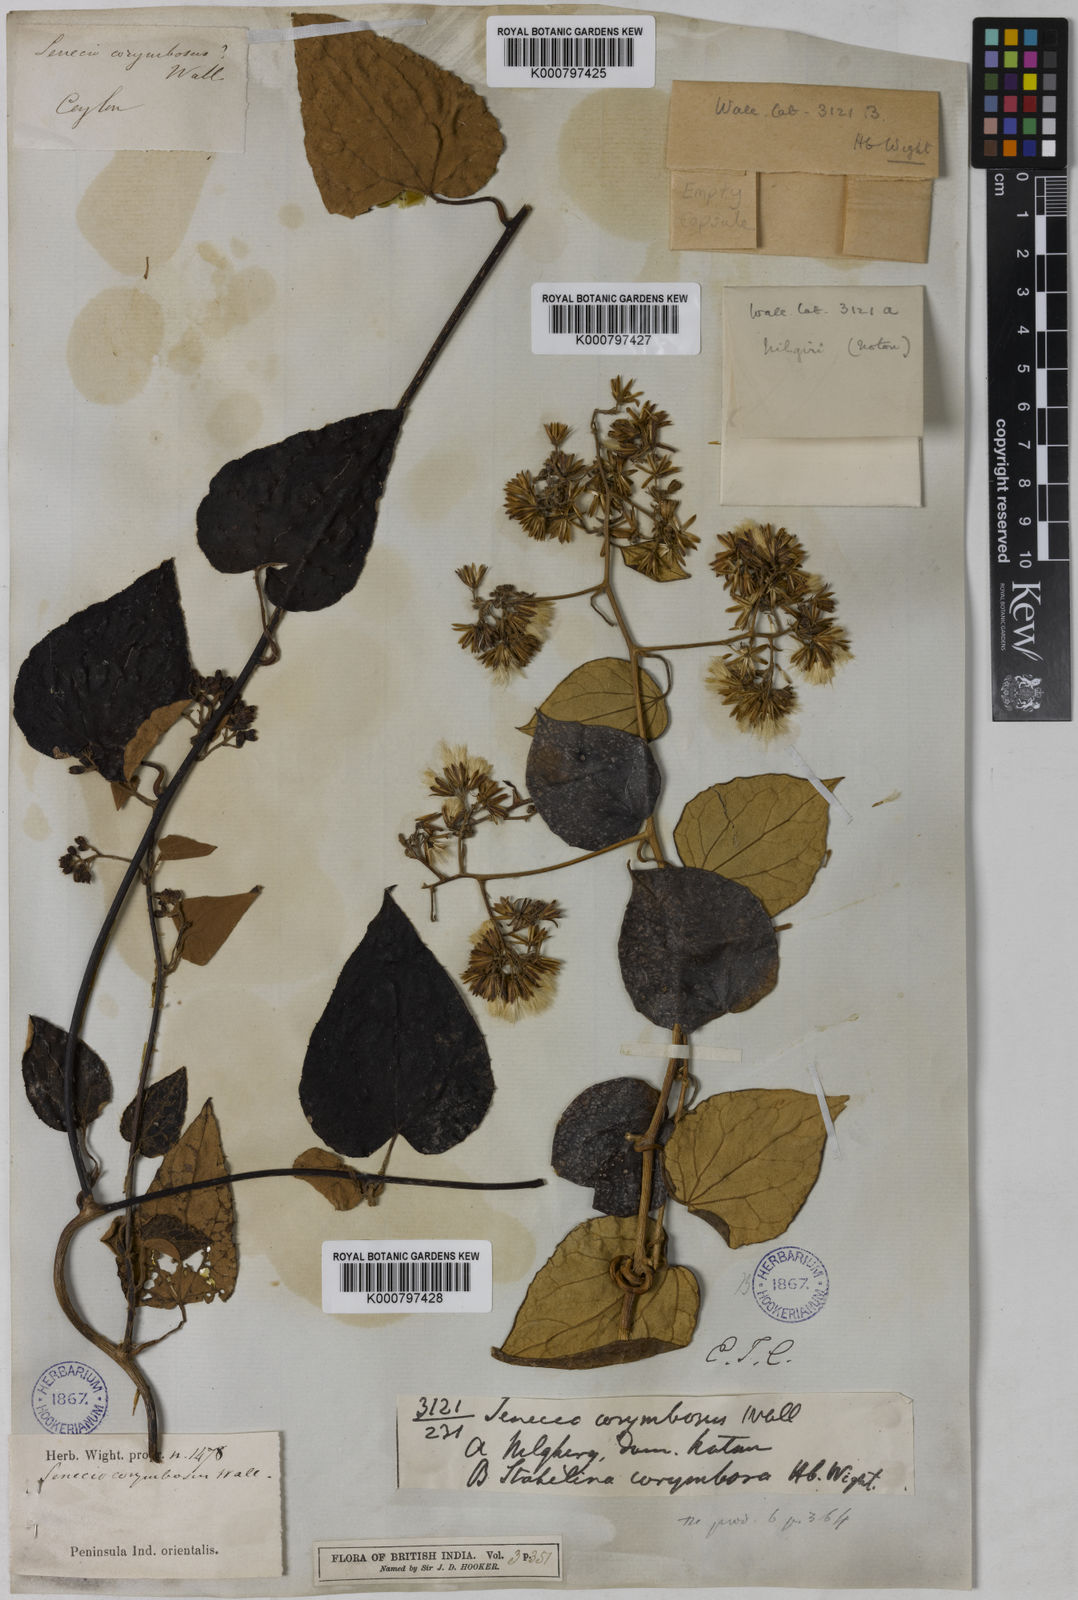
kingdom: Plantae
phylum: Tracheophyta
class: Magnoliopsida
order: Asterales
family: Asteraceae
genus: Cissampelopsis
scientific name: Cissampelopsis corymbosa
